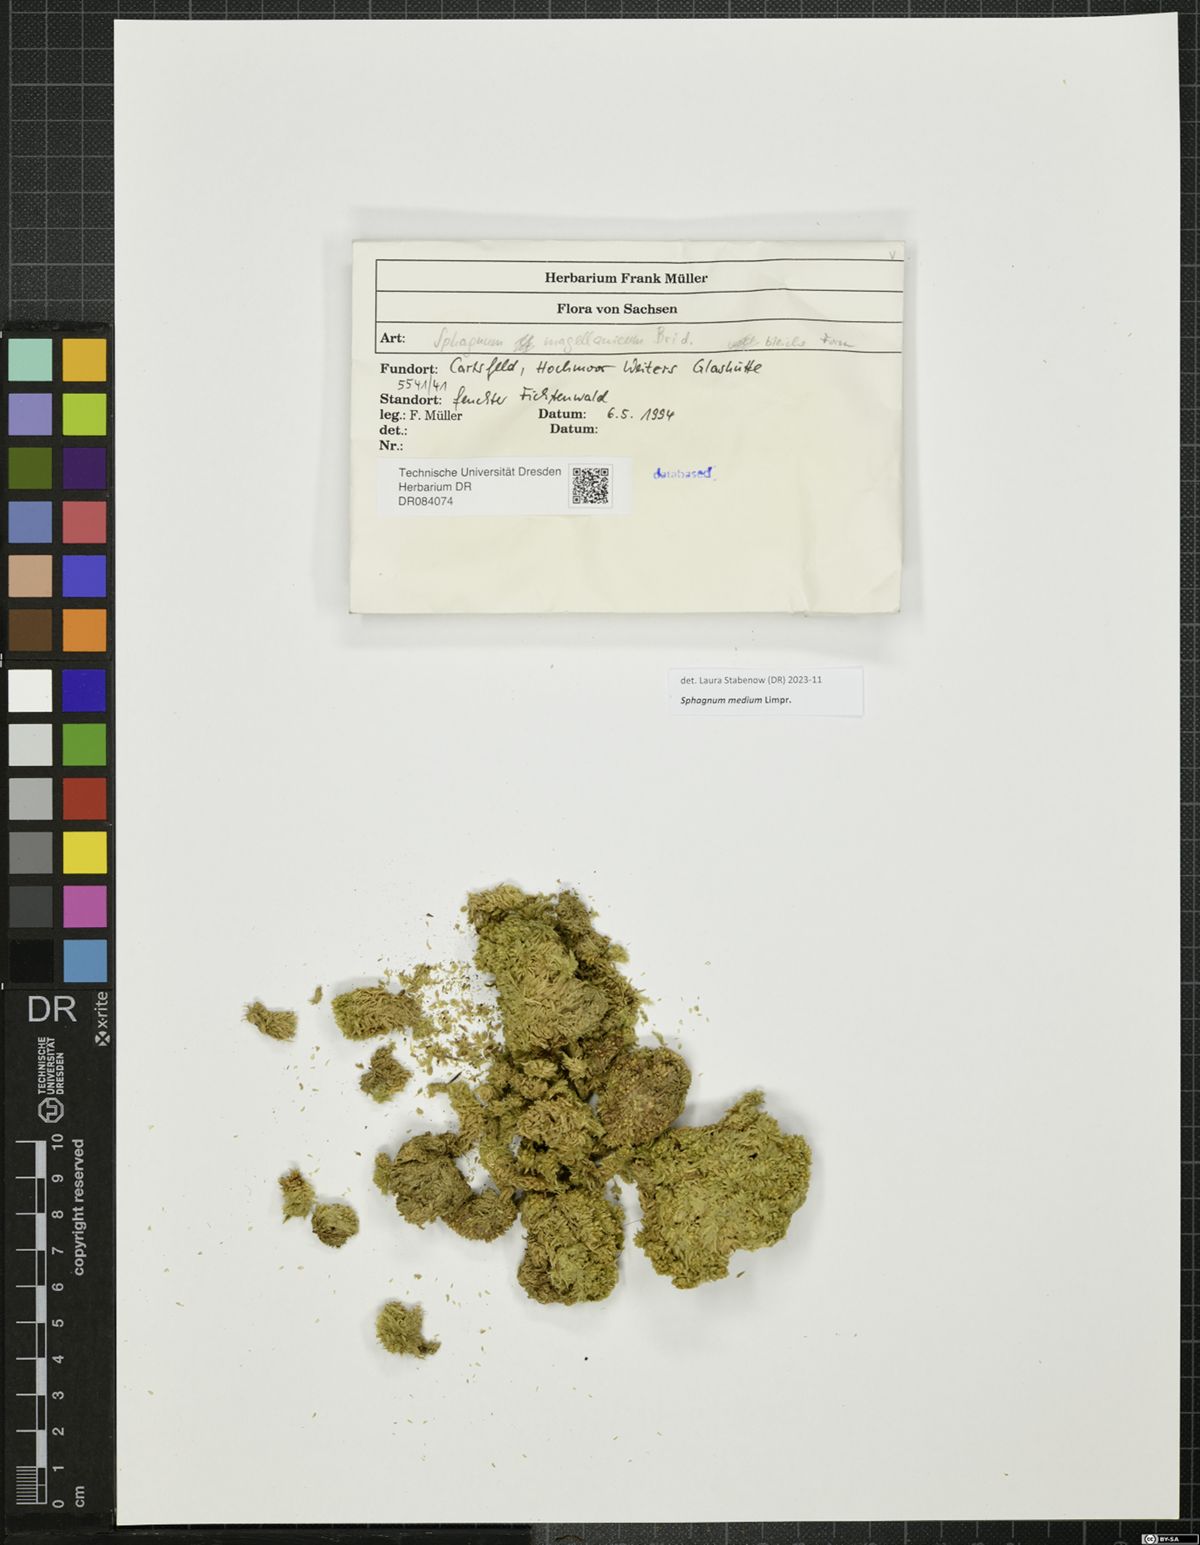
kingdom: Plantae
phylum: Bryophyta
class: Sphagnopsida
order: Sphagnales
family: Sphagnaceae
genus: Sphagnum
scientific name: Sphagnum medium
